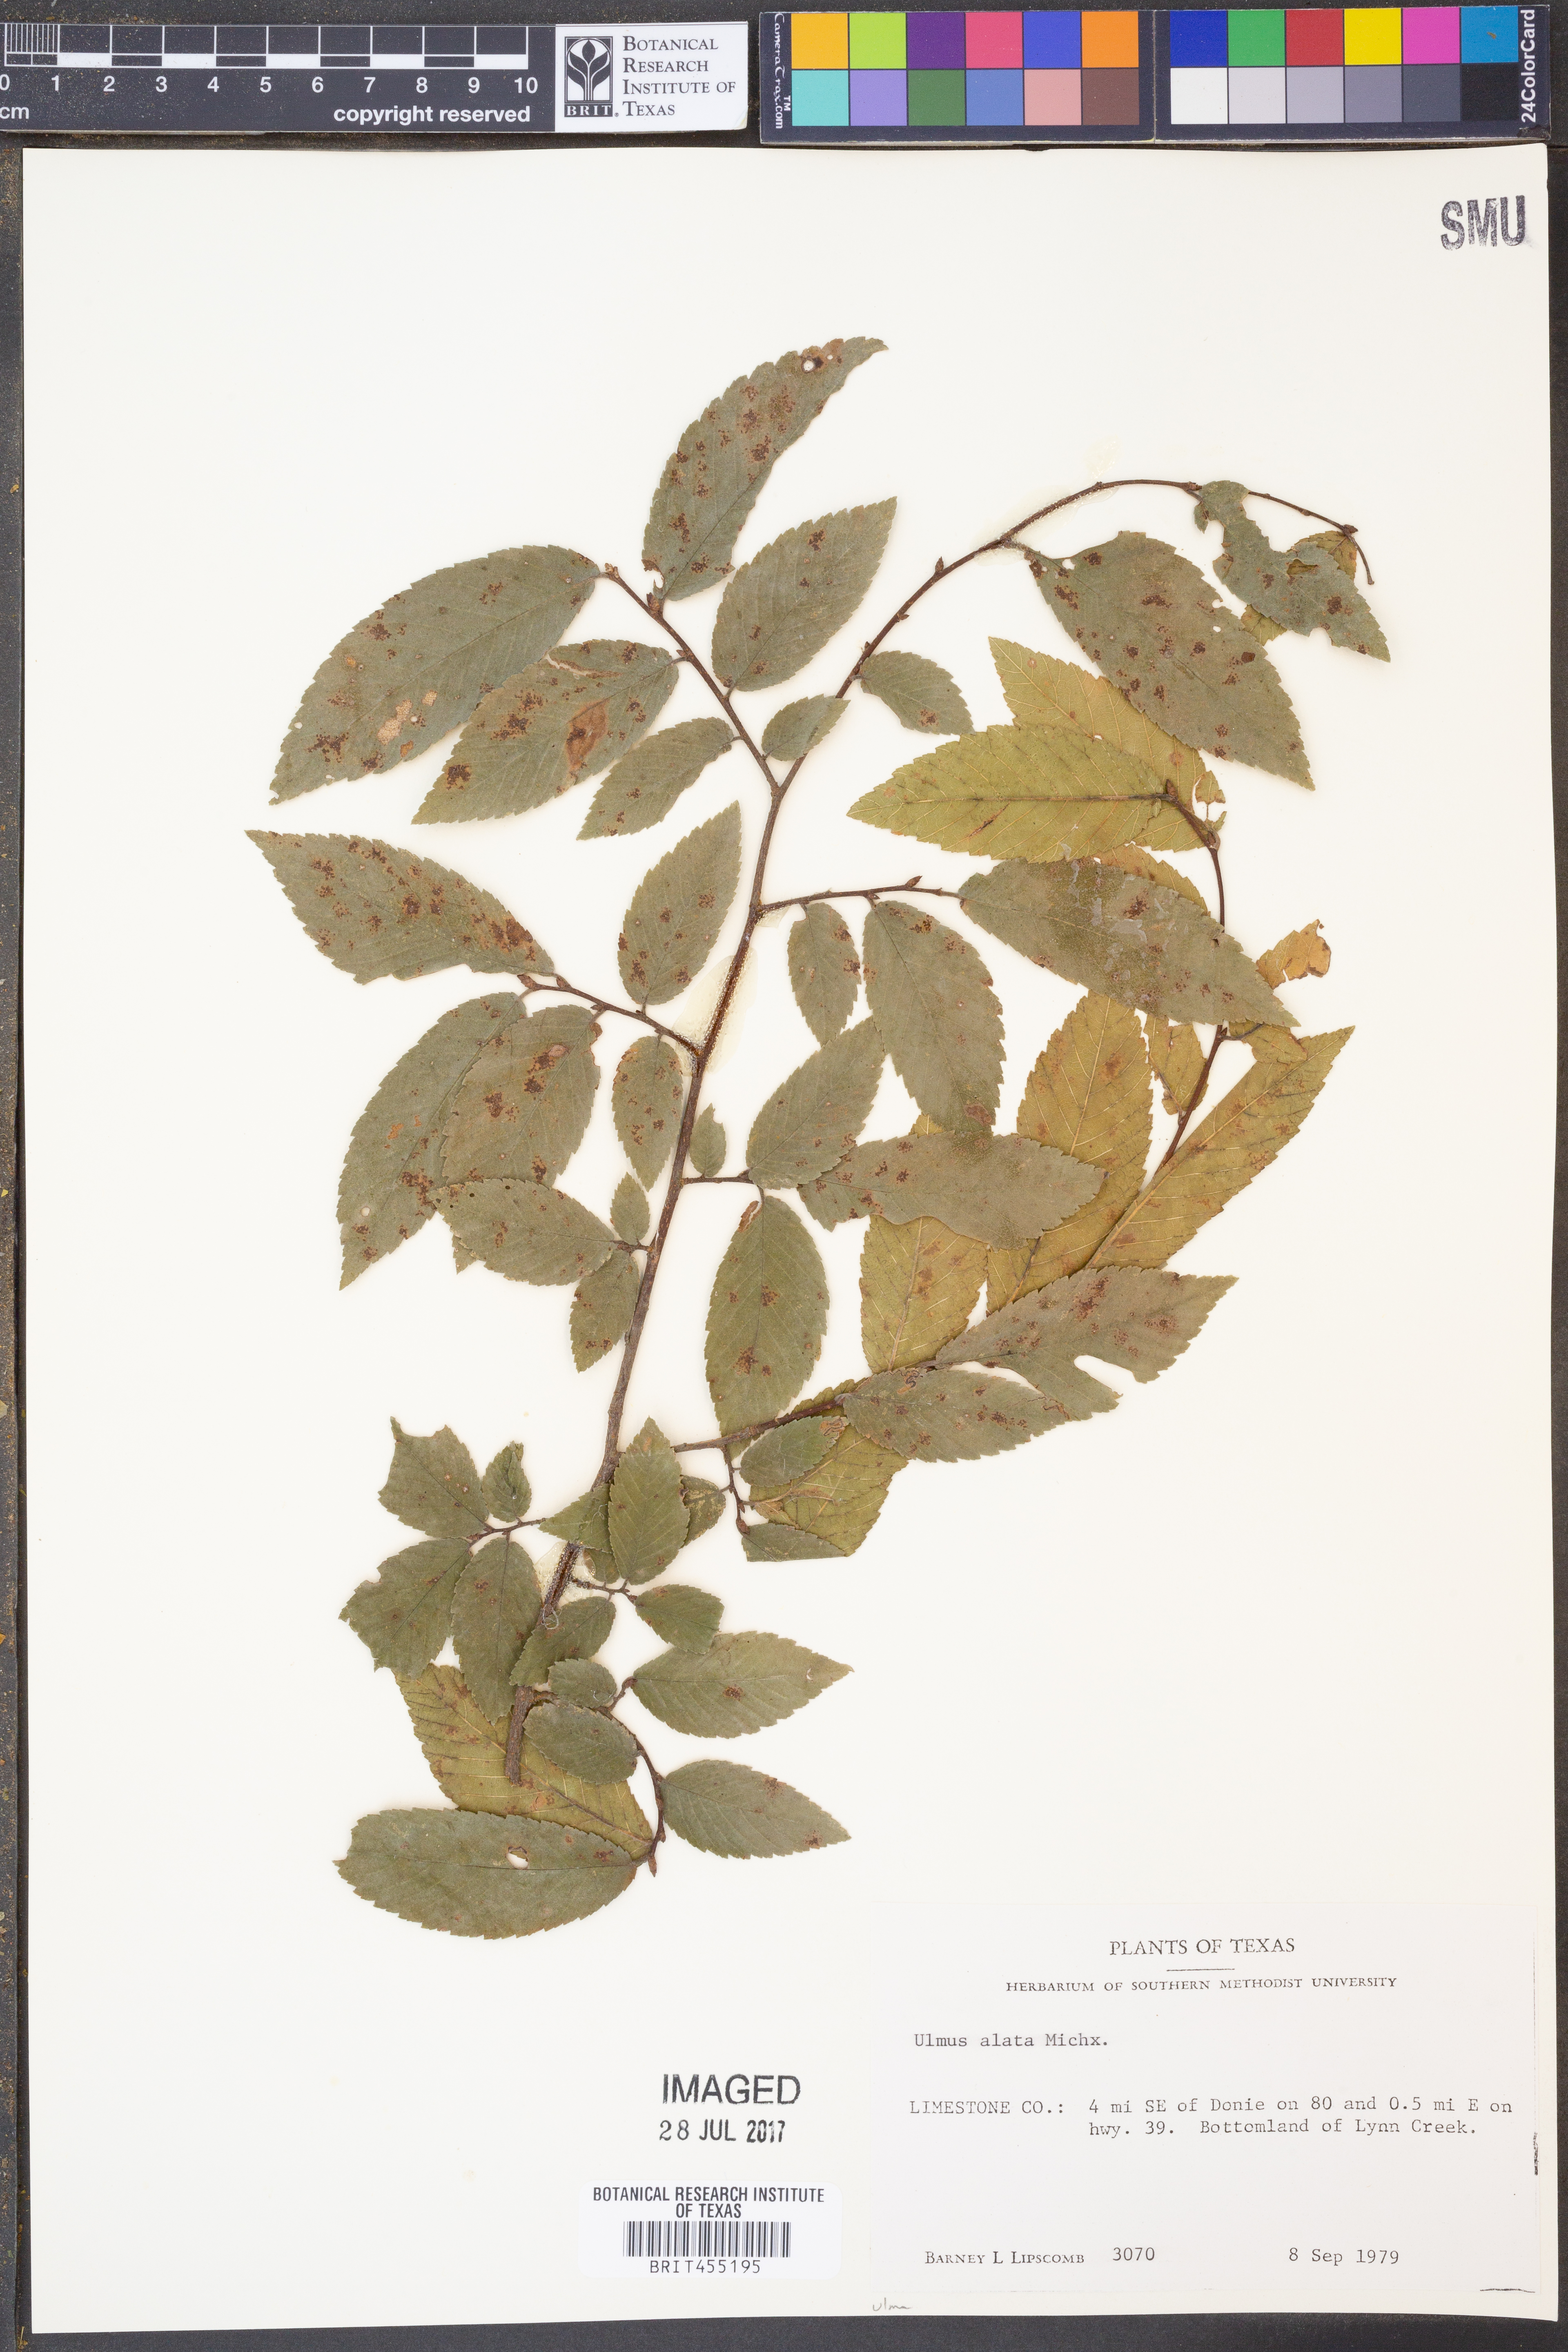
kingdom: Plantae
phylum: Tracheophyta
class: Magnoliopsida
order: Rosales
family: Ulmaceae
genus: Ulmus
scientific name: Ulmus alata
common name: Winged elm
